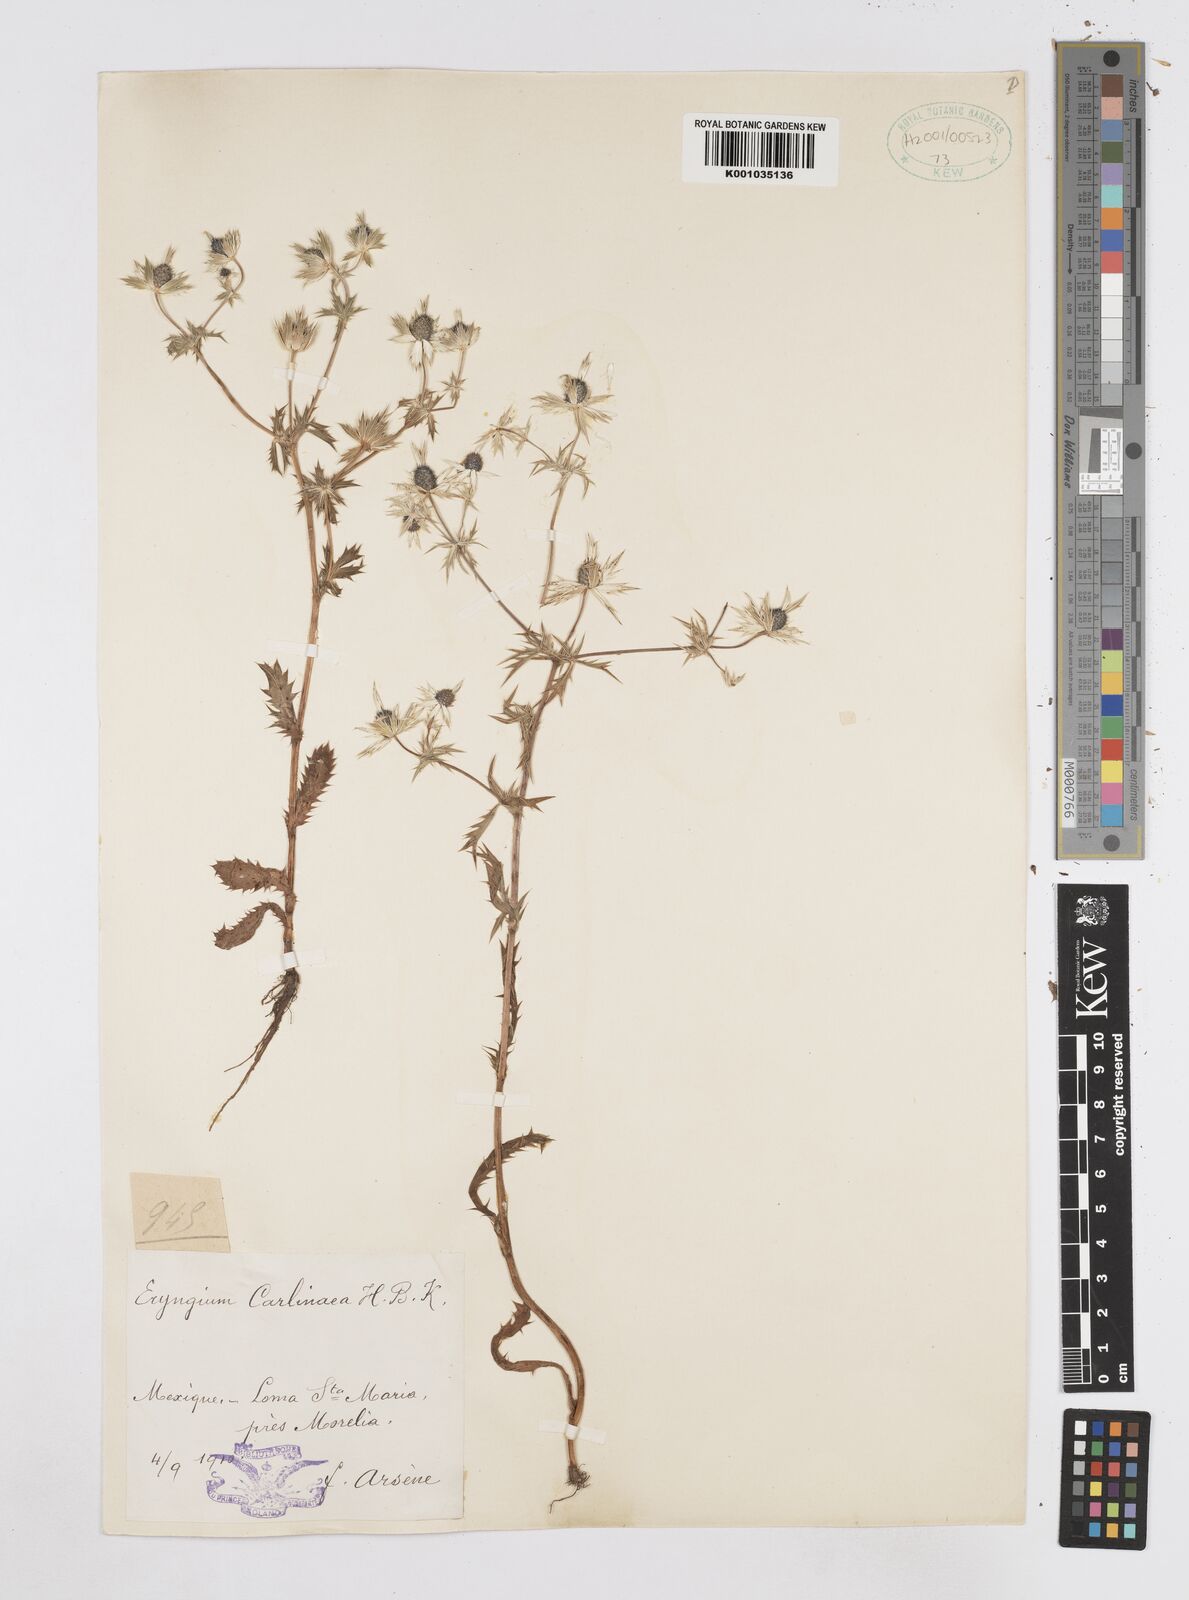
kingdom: Plantae
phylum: Tracheophyta
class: Magnoliopsida
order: Apiales
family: Apiaceae
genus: Eryngium
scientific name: Eryngium carlinae
